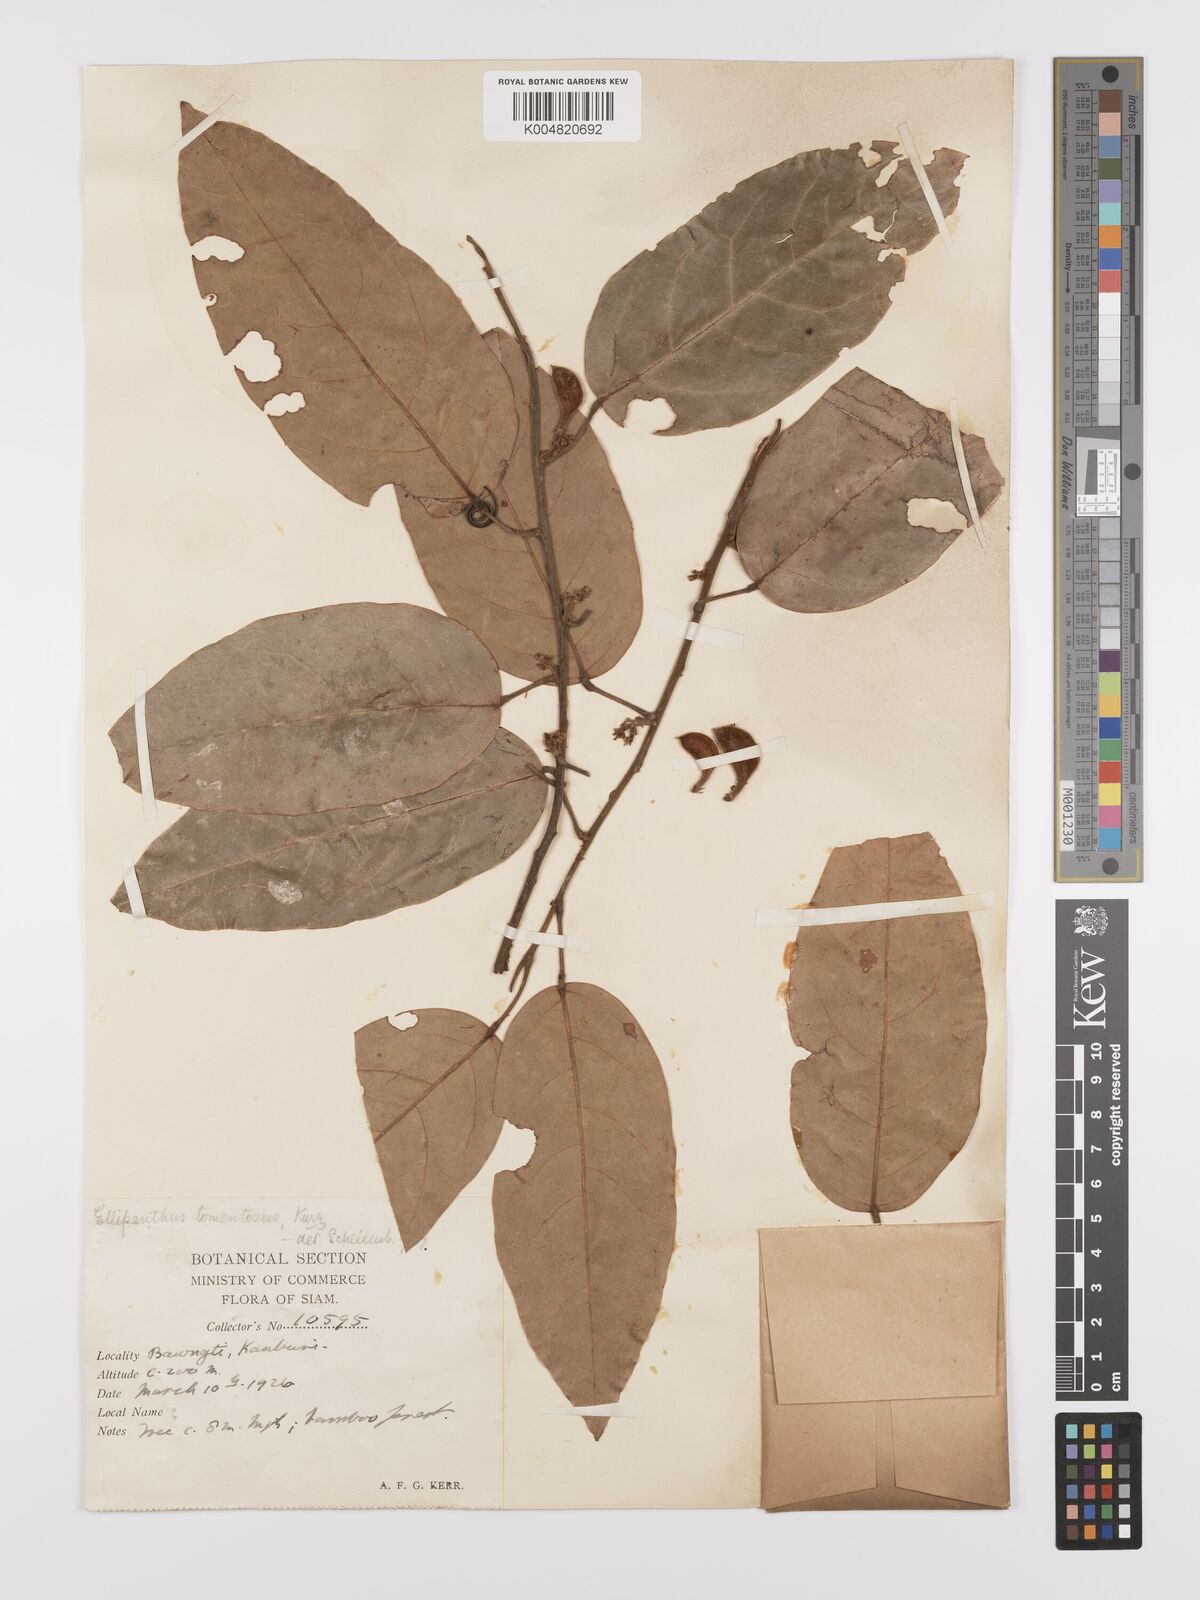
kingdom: Plantae
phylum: Tracheophyta
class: Magnoliopsida
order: Oxalidales
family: Connaraceae
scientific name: Connaraceae
